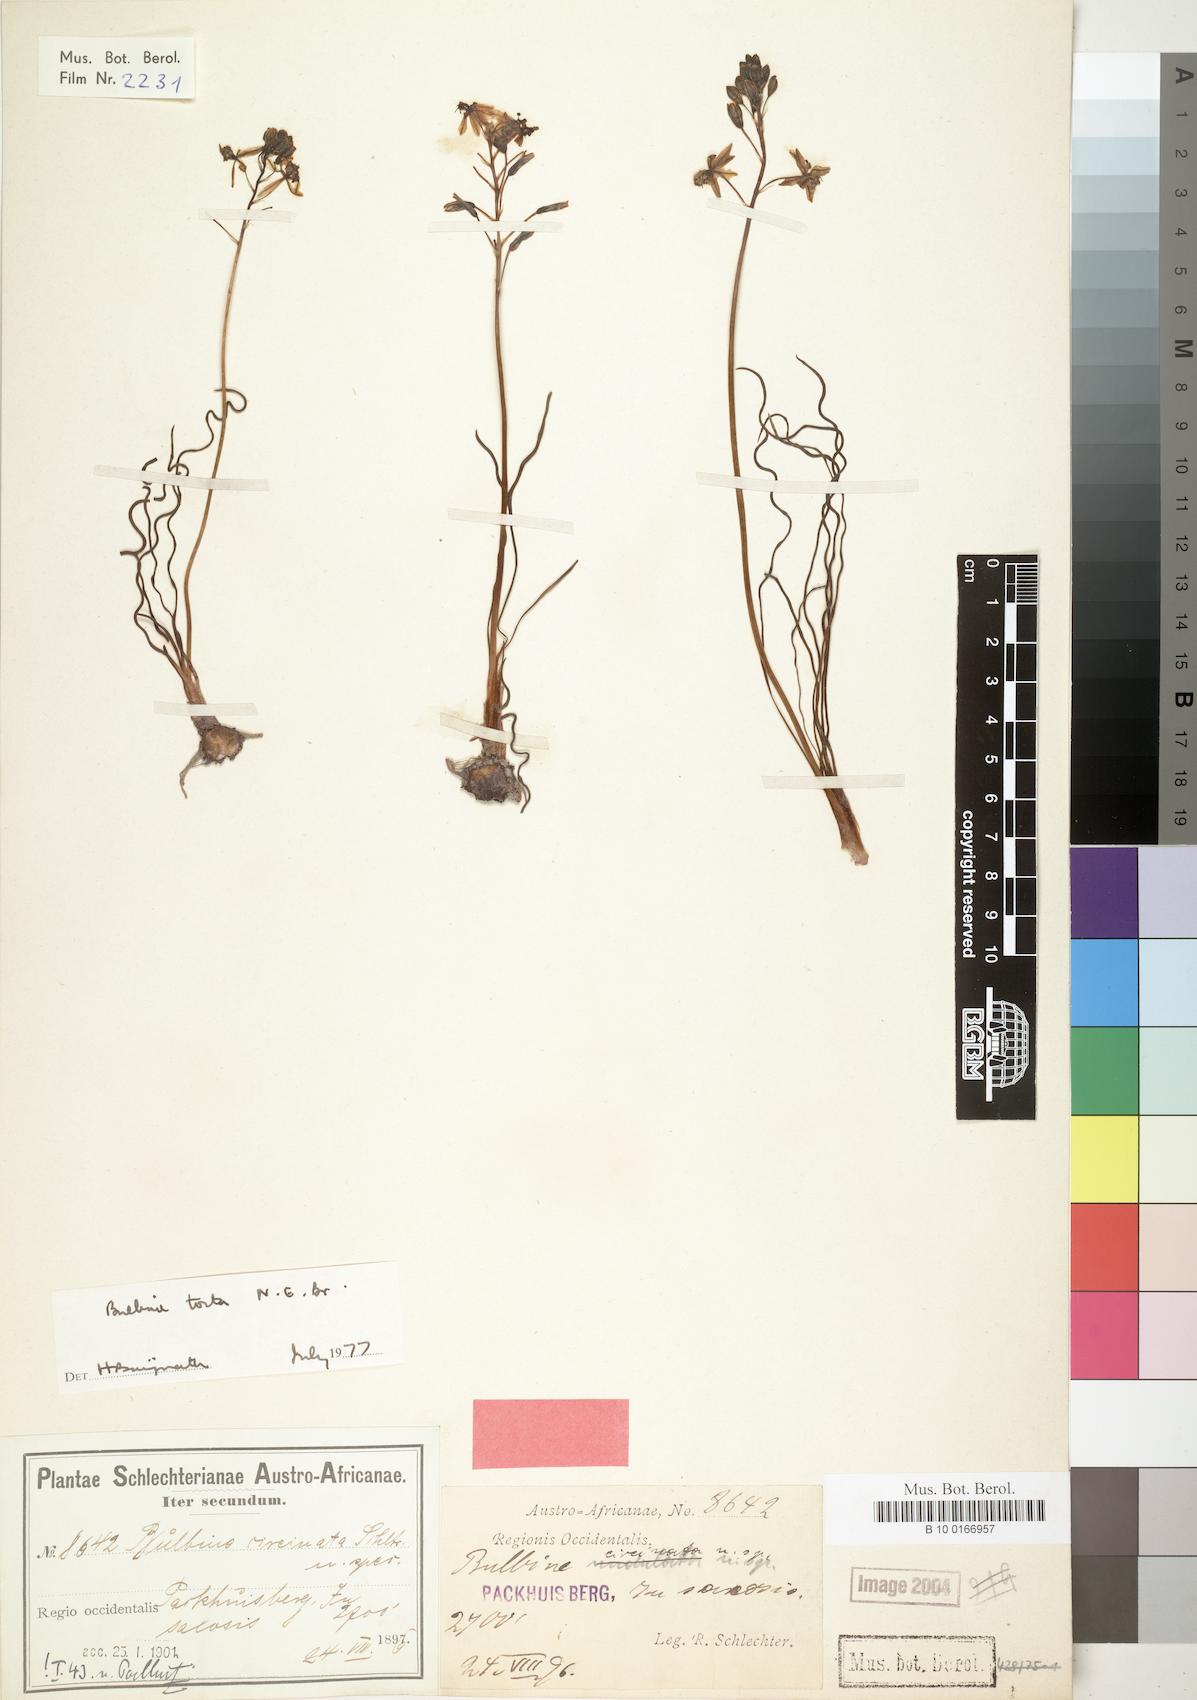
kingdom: Plantae
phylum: Tracheophyta
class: Liliopsida
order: Asparagales
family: Asphodelaceae
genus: Bulbine
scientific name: Bulbine torta
